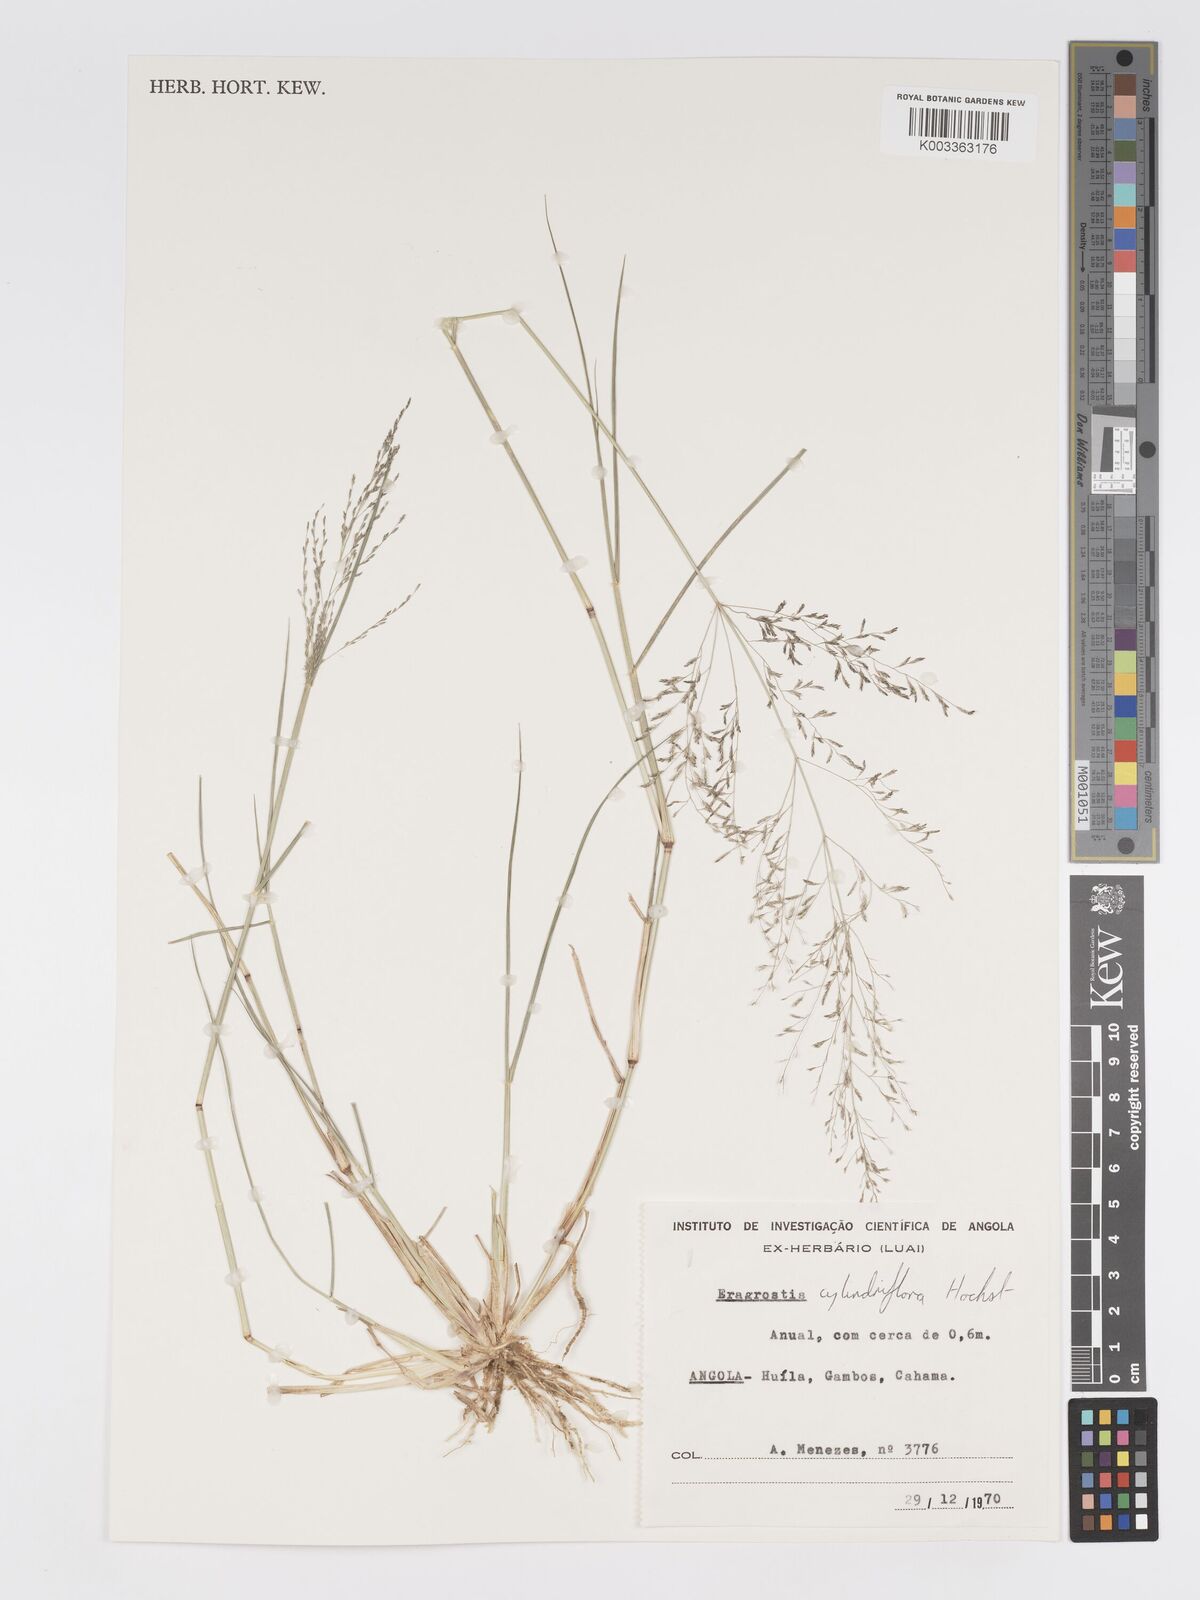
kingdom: Plantae
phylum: Tracheophyta
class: Liliopsida
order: Poales
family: Poaceae
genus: Eragrostis
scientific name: Eragrostis cylindriflora
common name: Cylinderflower lovegrass
